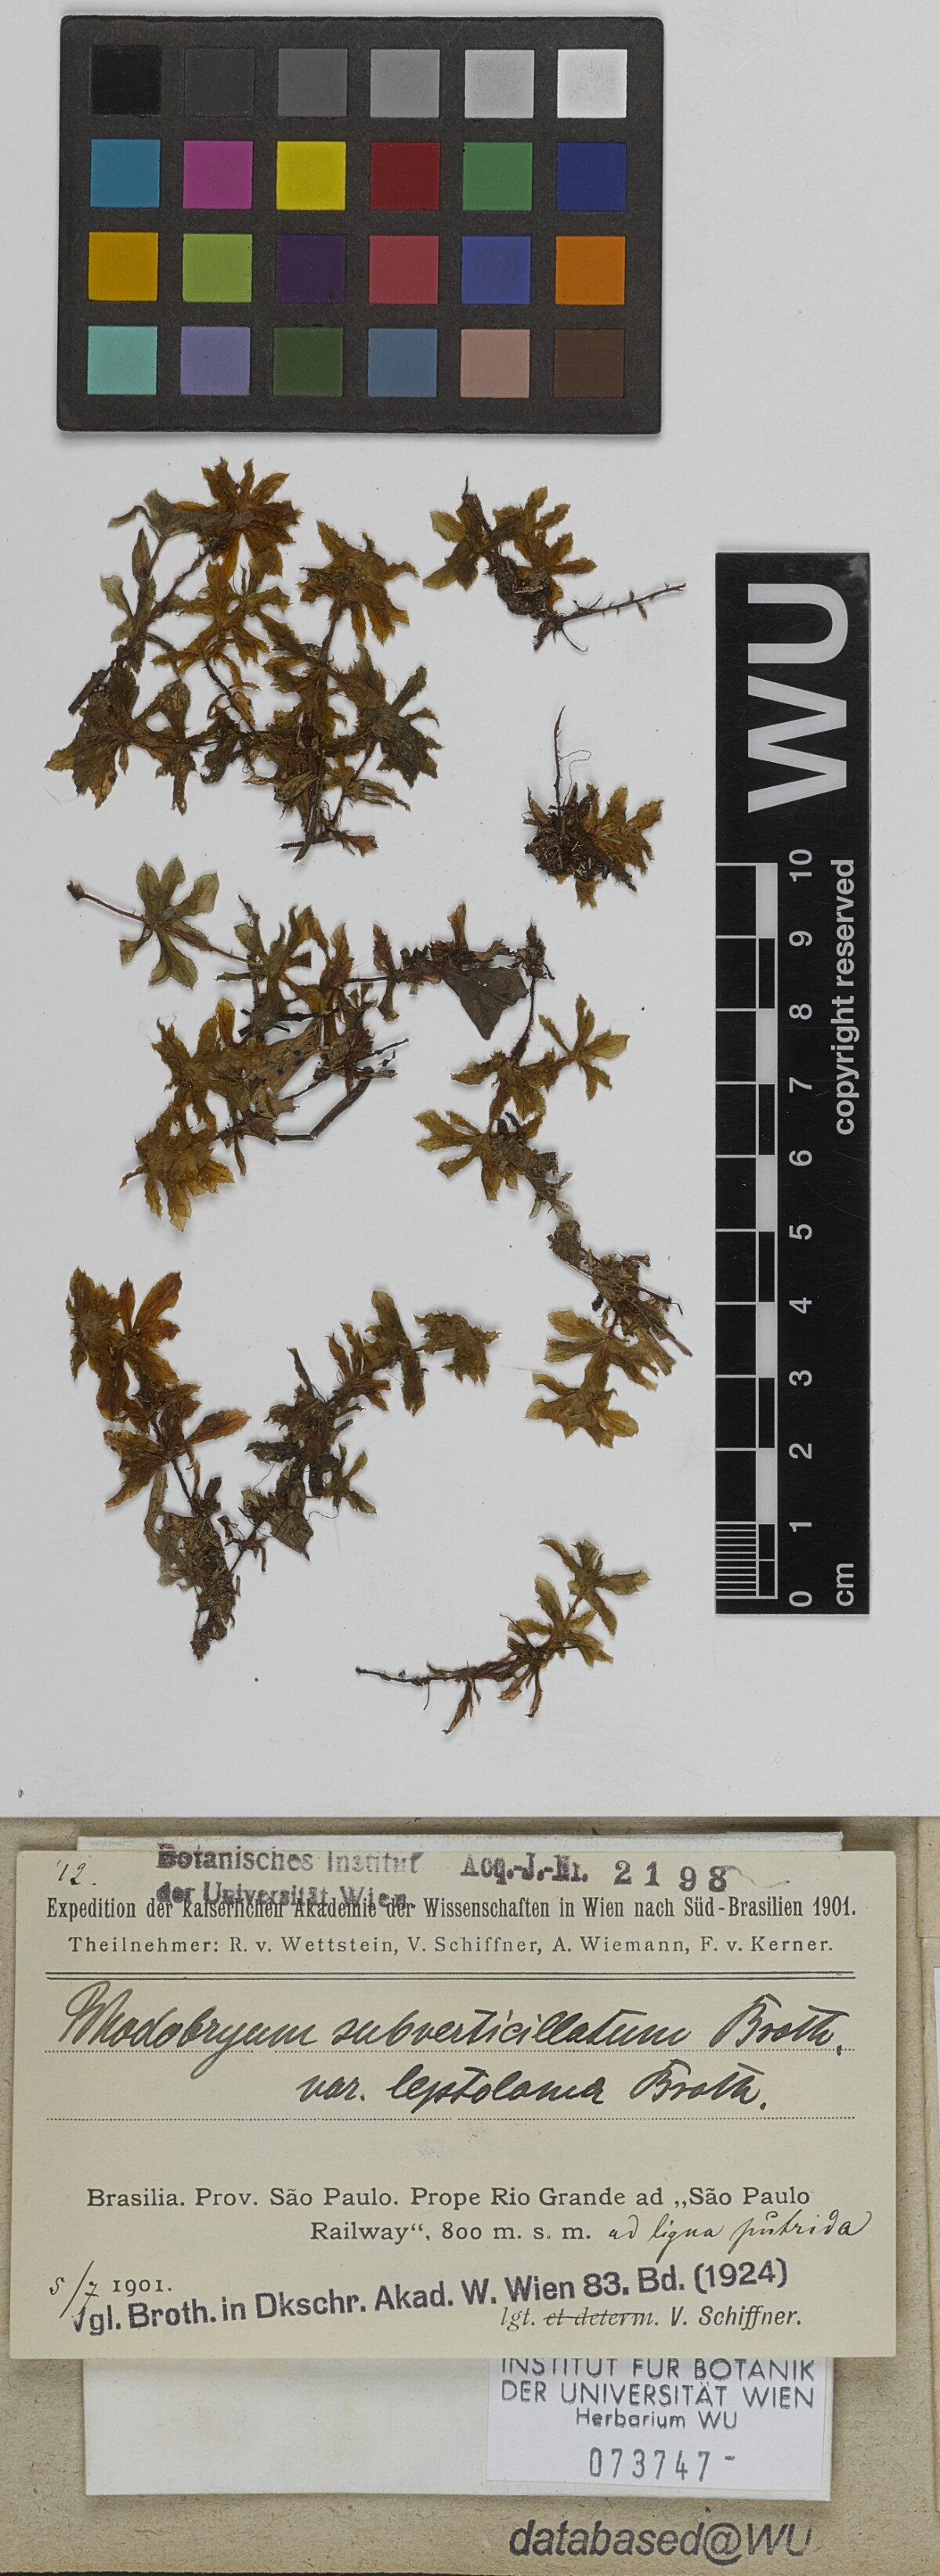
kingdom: Plantae
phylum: Bryophyta
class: Bryopsida
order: Bryales
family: Bryaceae
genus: Rhodobryum
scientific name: Rhodobryum beyrichianum
